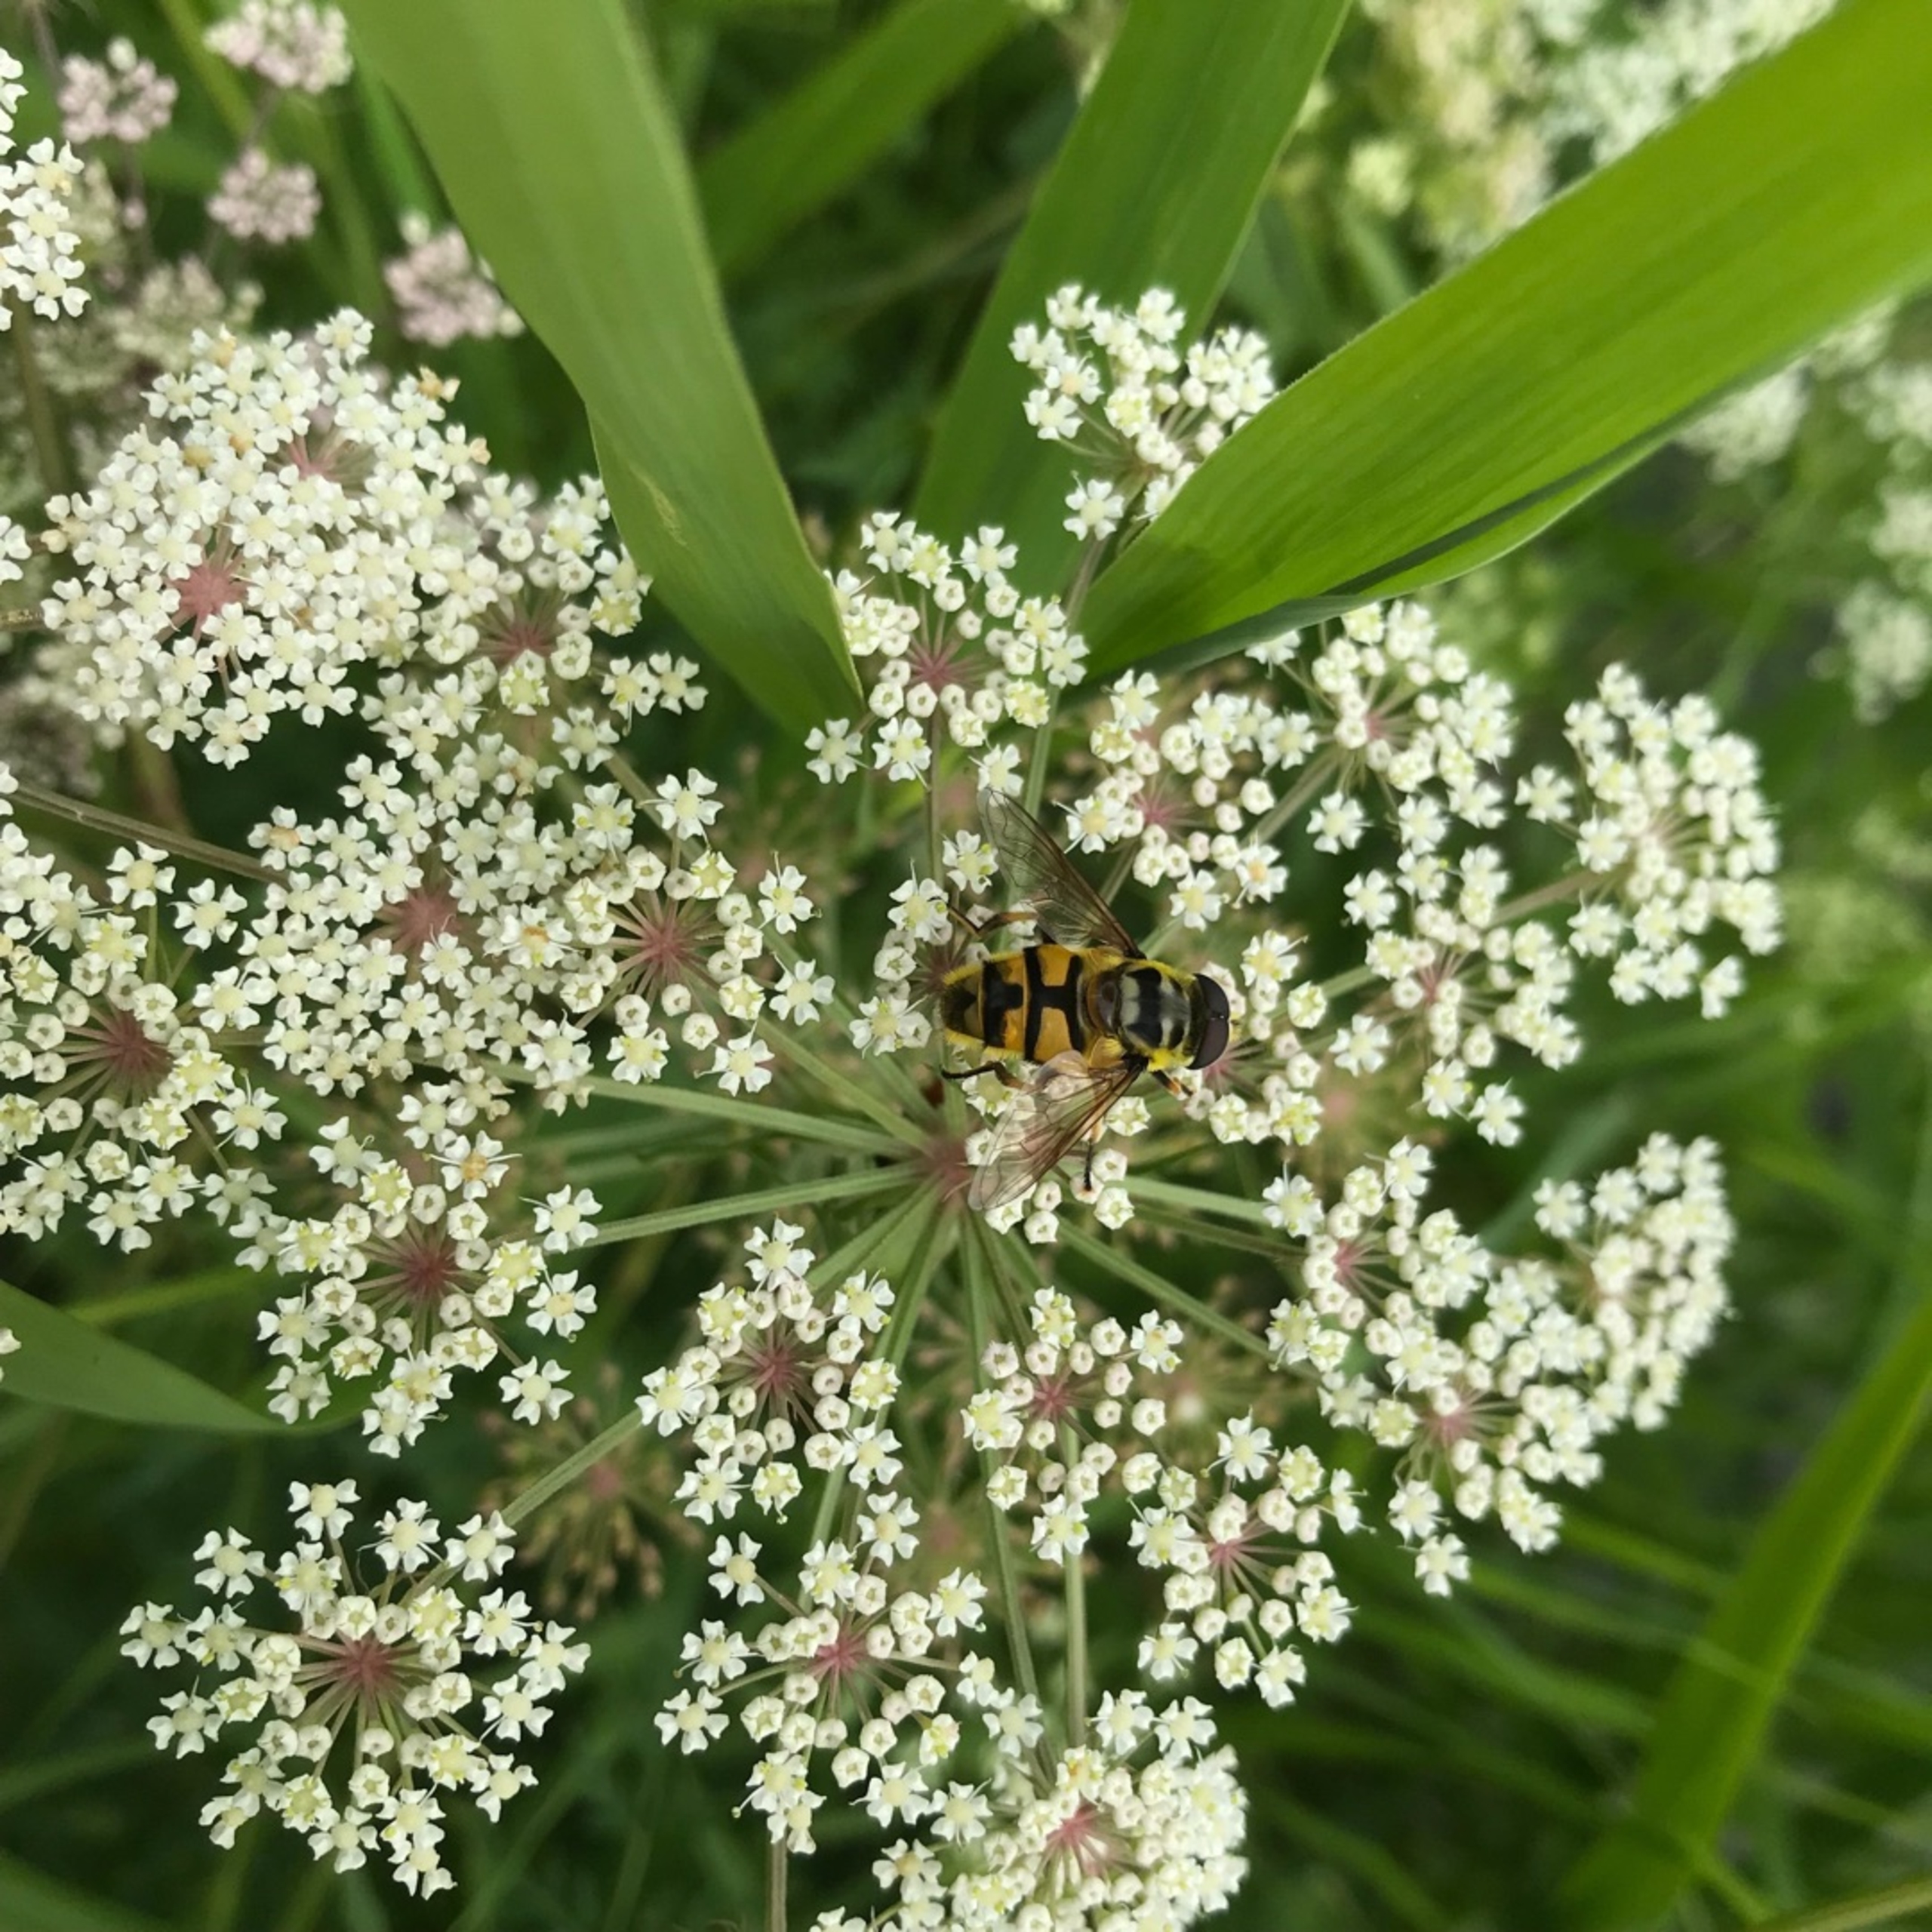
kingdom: Animalia
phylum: Arthropoda
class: Insecta
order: Diptera
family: Syrphidae
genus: Myathropa
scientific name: Myathropa florea
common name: Dødningehoved-svirreflue
